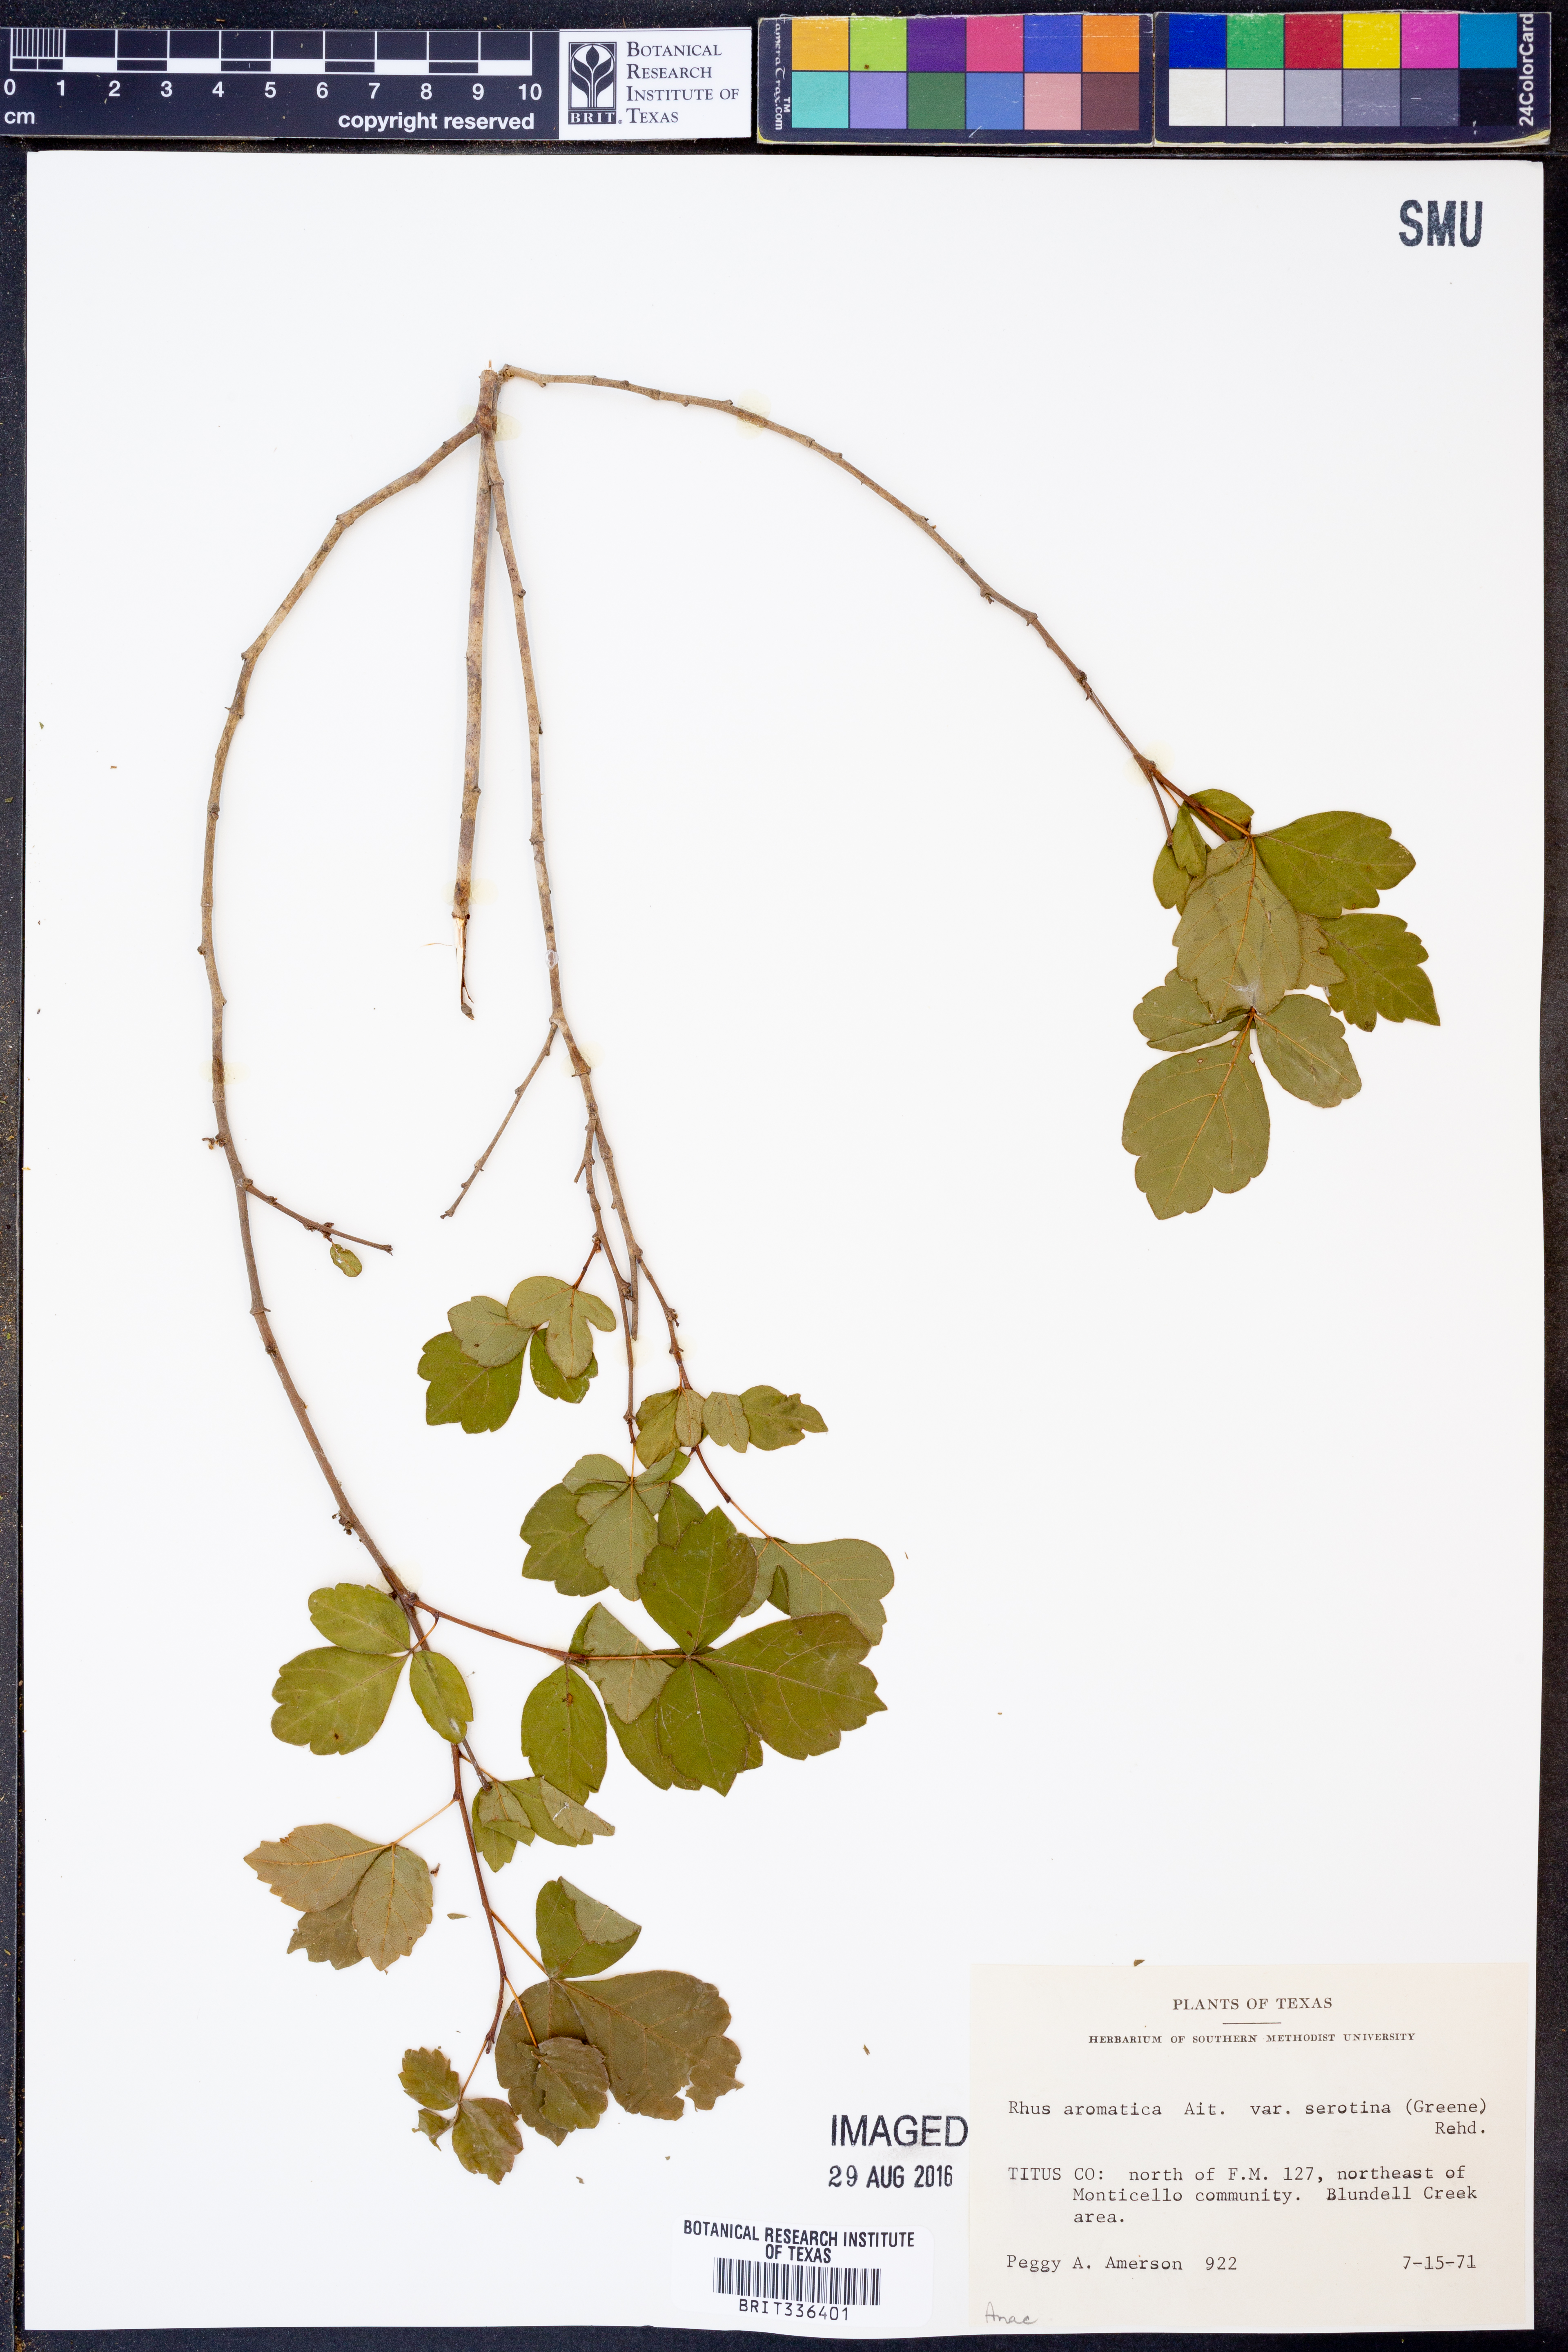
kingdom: Plantae
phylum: Tracheophyta
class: Magnoliopsida
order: Sapindales
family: Anacardiaceae
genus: Rhus
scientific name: Rhus aromatica
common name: Aromatic sumac
